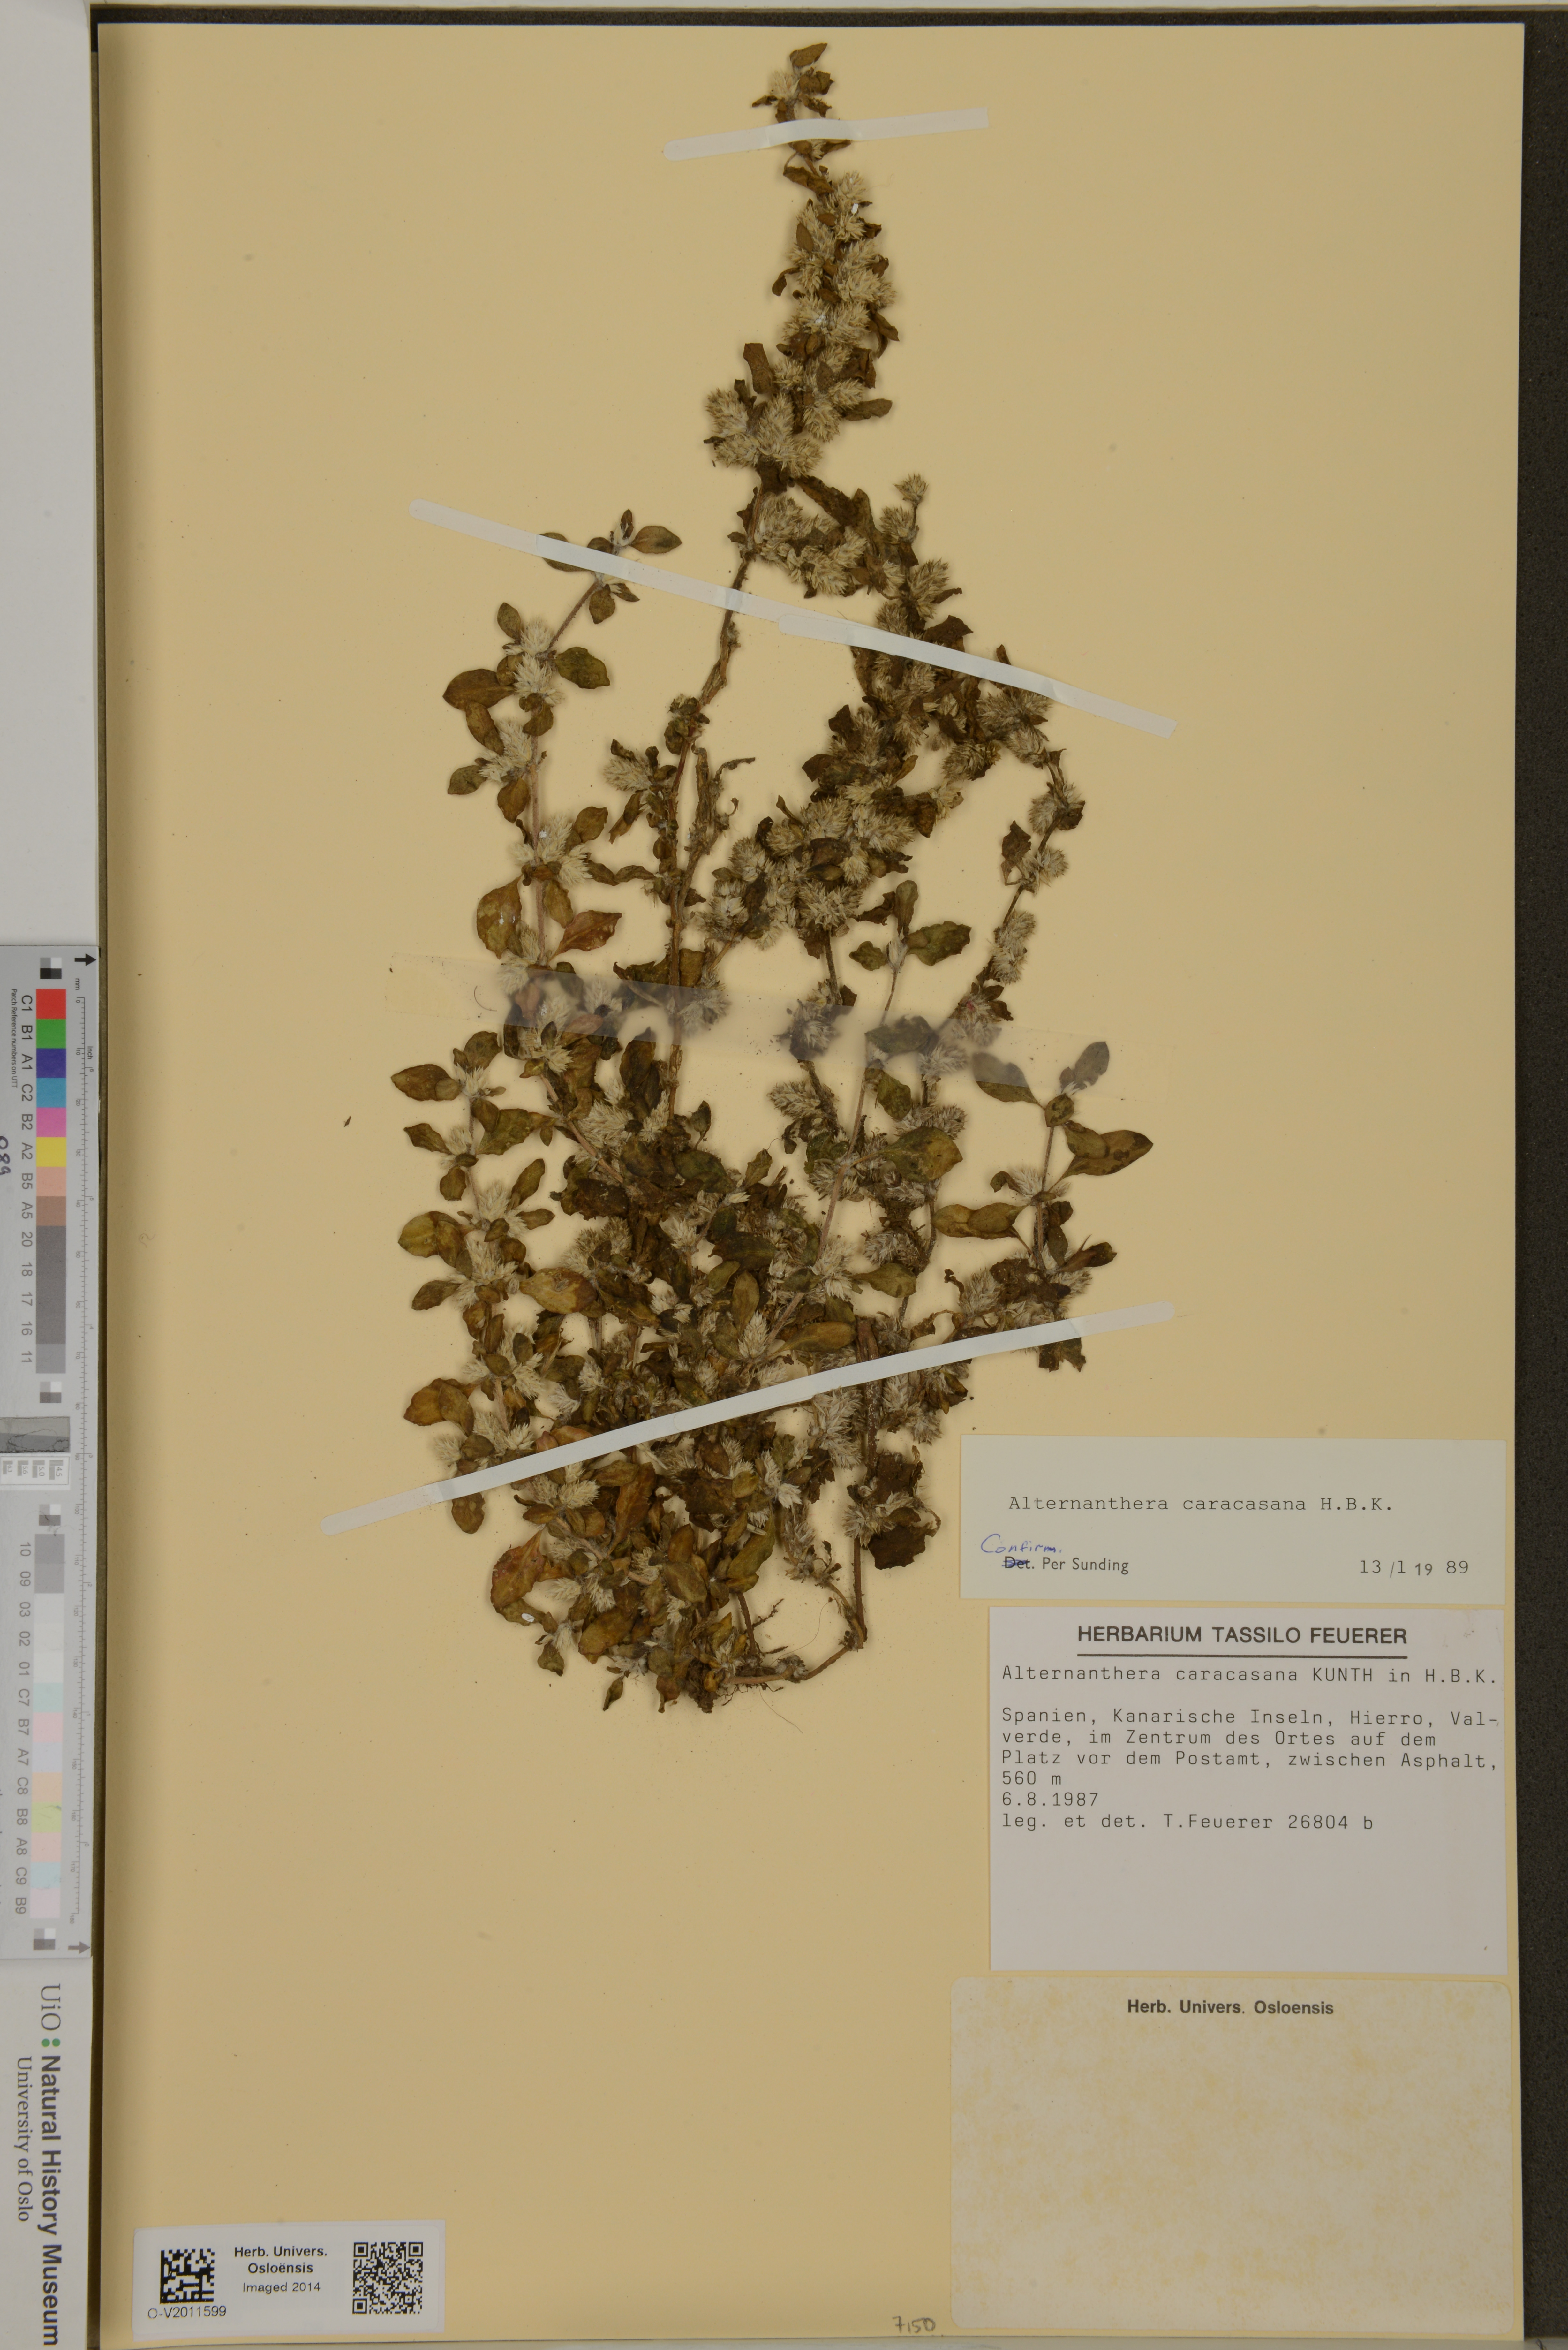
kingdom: Plantae
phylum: Tracheophyta
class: Magnoliopsida
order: Caryophyllales
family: Amaranthaceae
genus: Alternanthera
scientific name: Alternanthera caracasana
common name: Washerwoman
